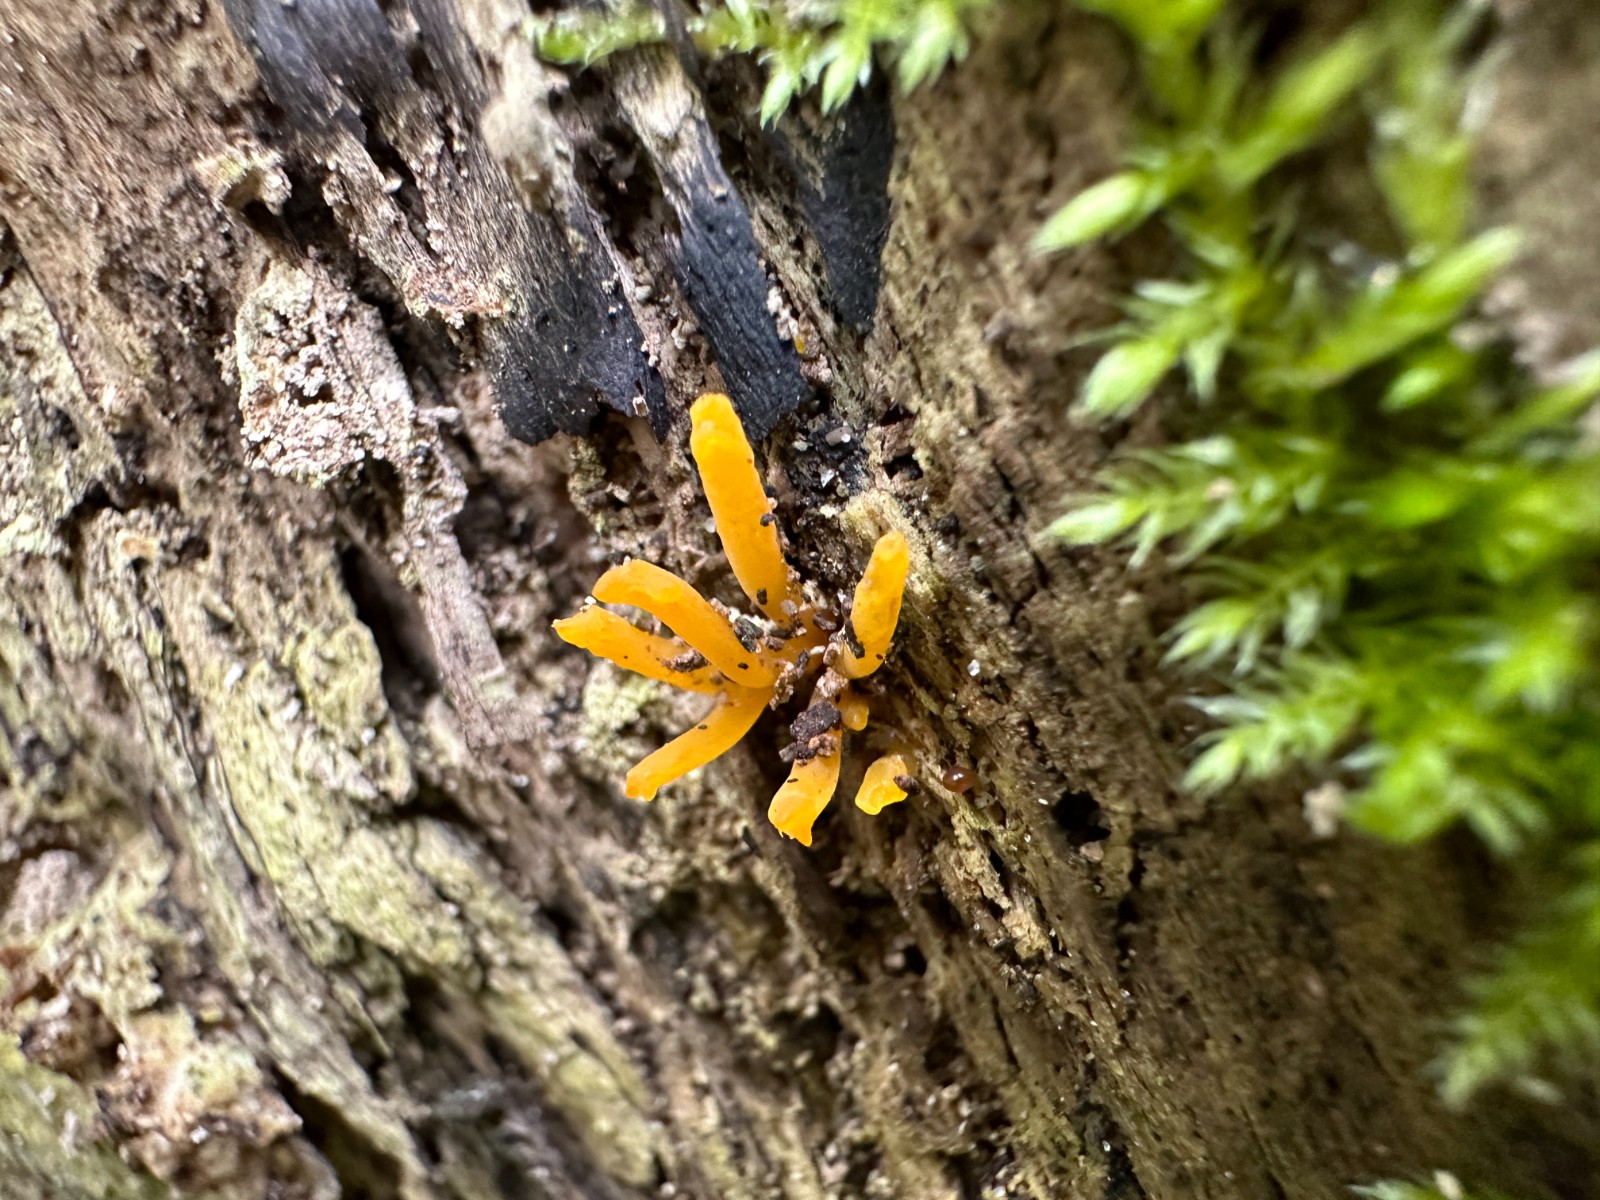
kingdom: Fungi
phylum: Basidiomycota
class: Dacrymycetes
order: Dacrymycetales
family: Dacrymycetaceae
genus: Calocera
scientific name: Calocera cornea
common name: liden guldgaffel
